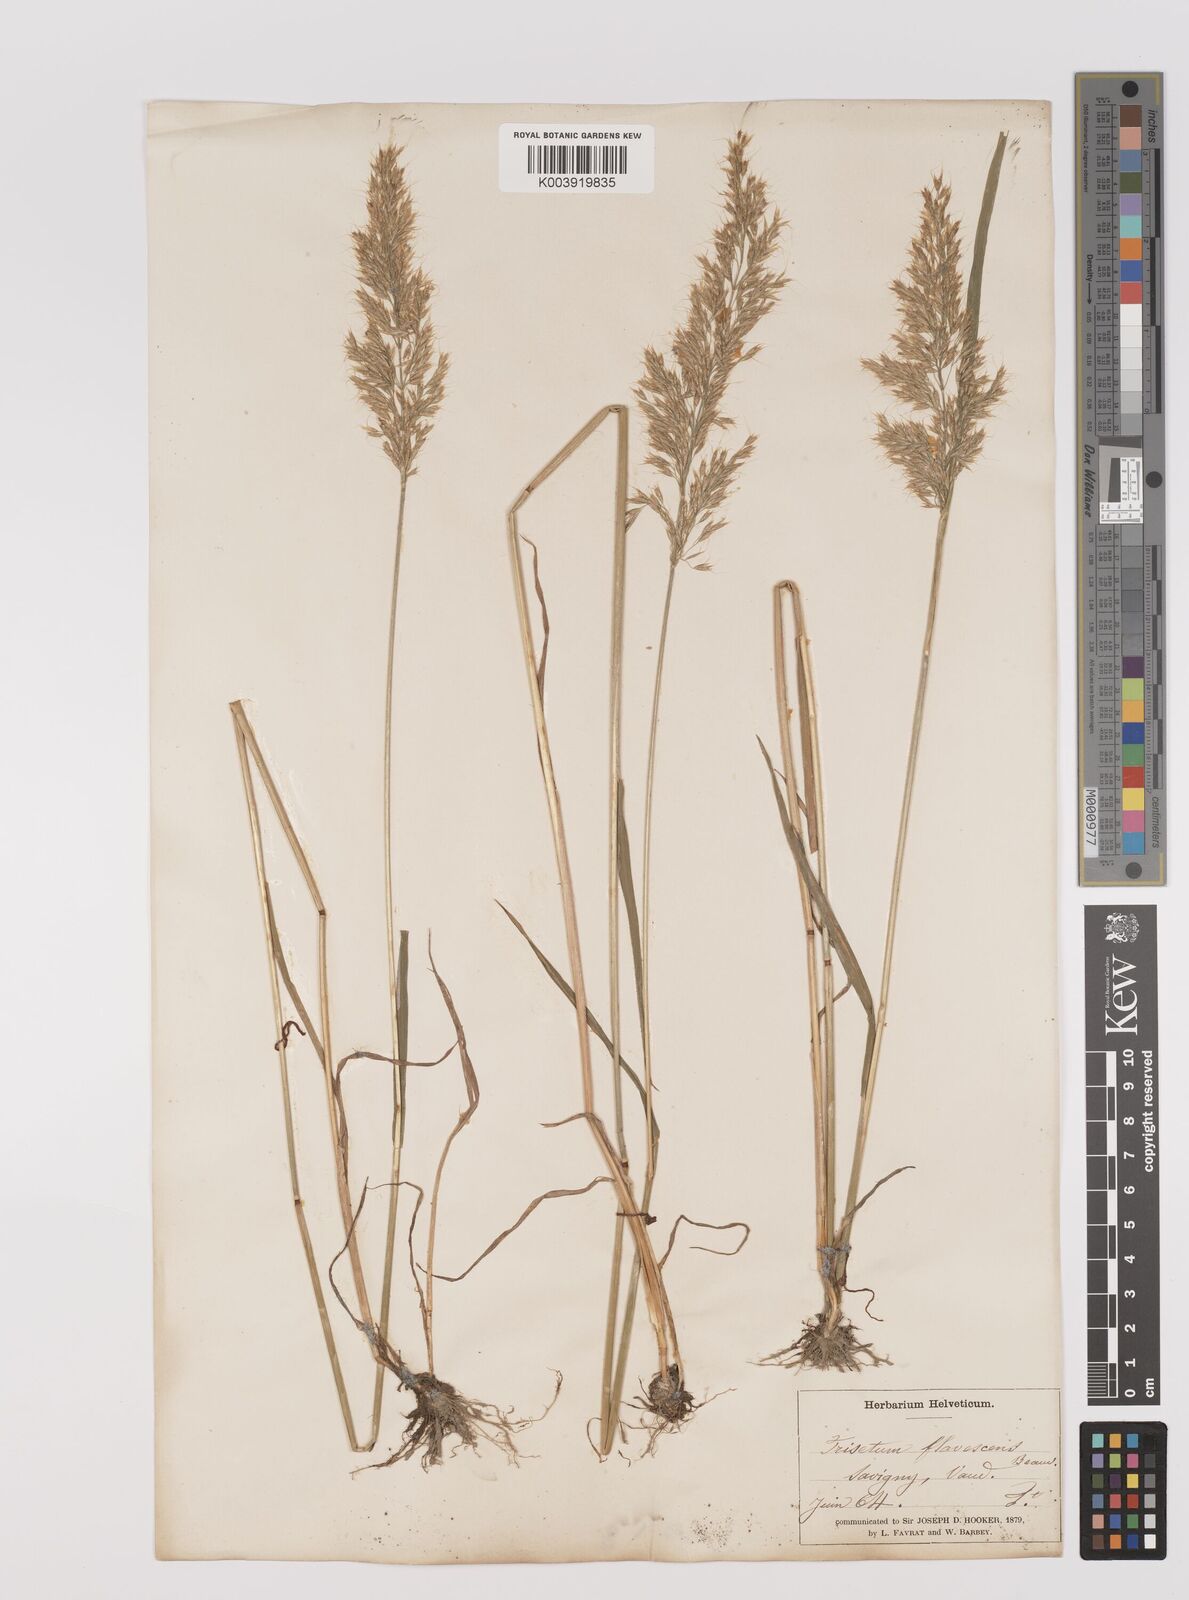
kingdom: Plantae
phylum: Tracheophyta
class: Liliopsida
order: Poales
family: Poaceae
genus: Trisetum
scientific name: Trisetum flavescens
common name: Yellow oat-grass
